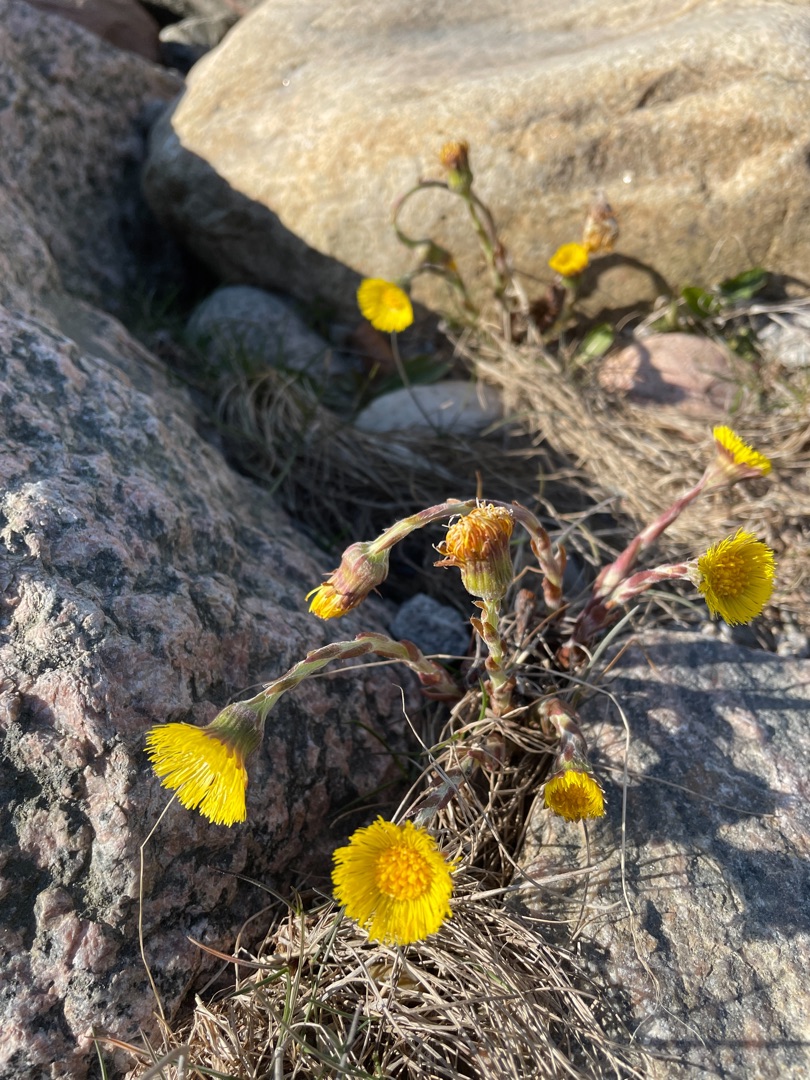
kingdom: Plantae
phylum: Tracheophyta
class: Magnoliopsida
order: Asterales
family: Asteraceae
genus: Tussilago
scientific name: Tussilago farfara
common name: Følfod
